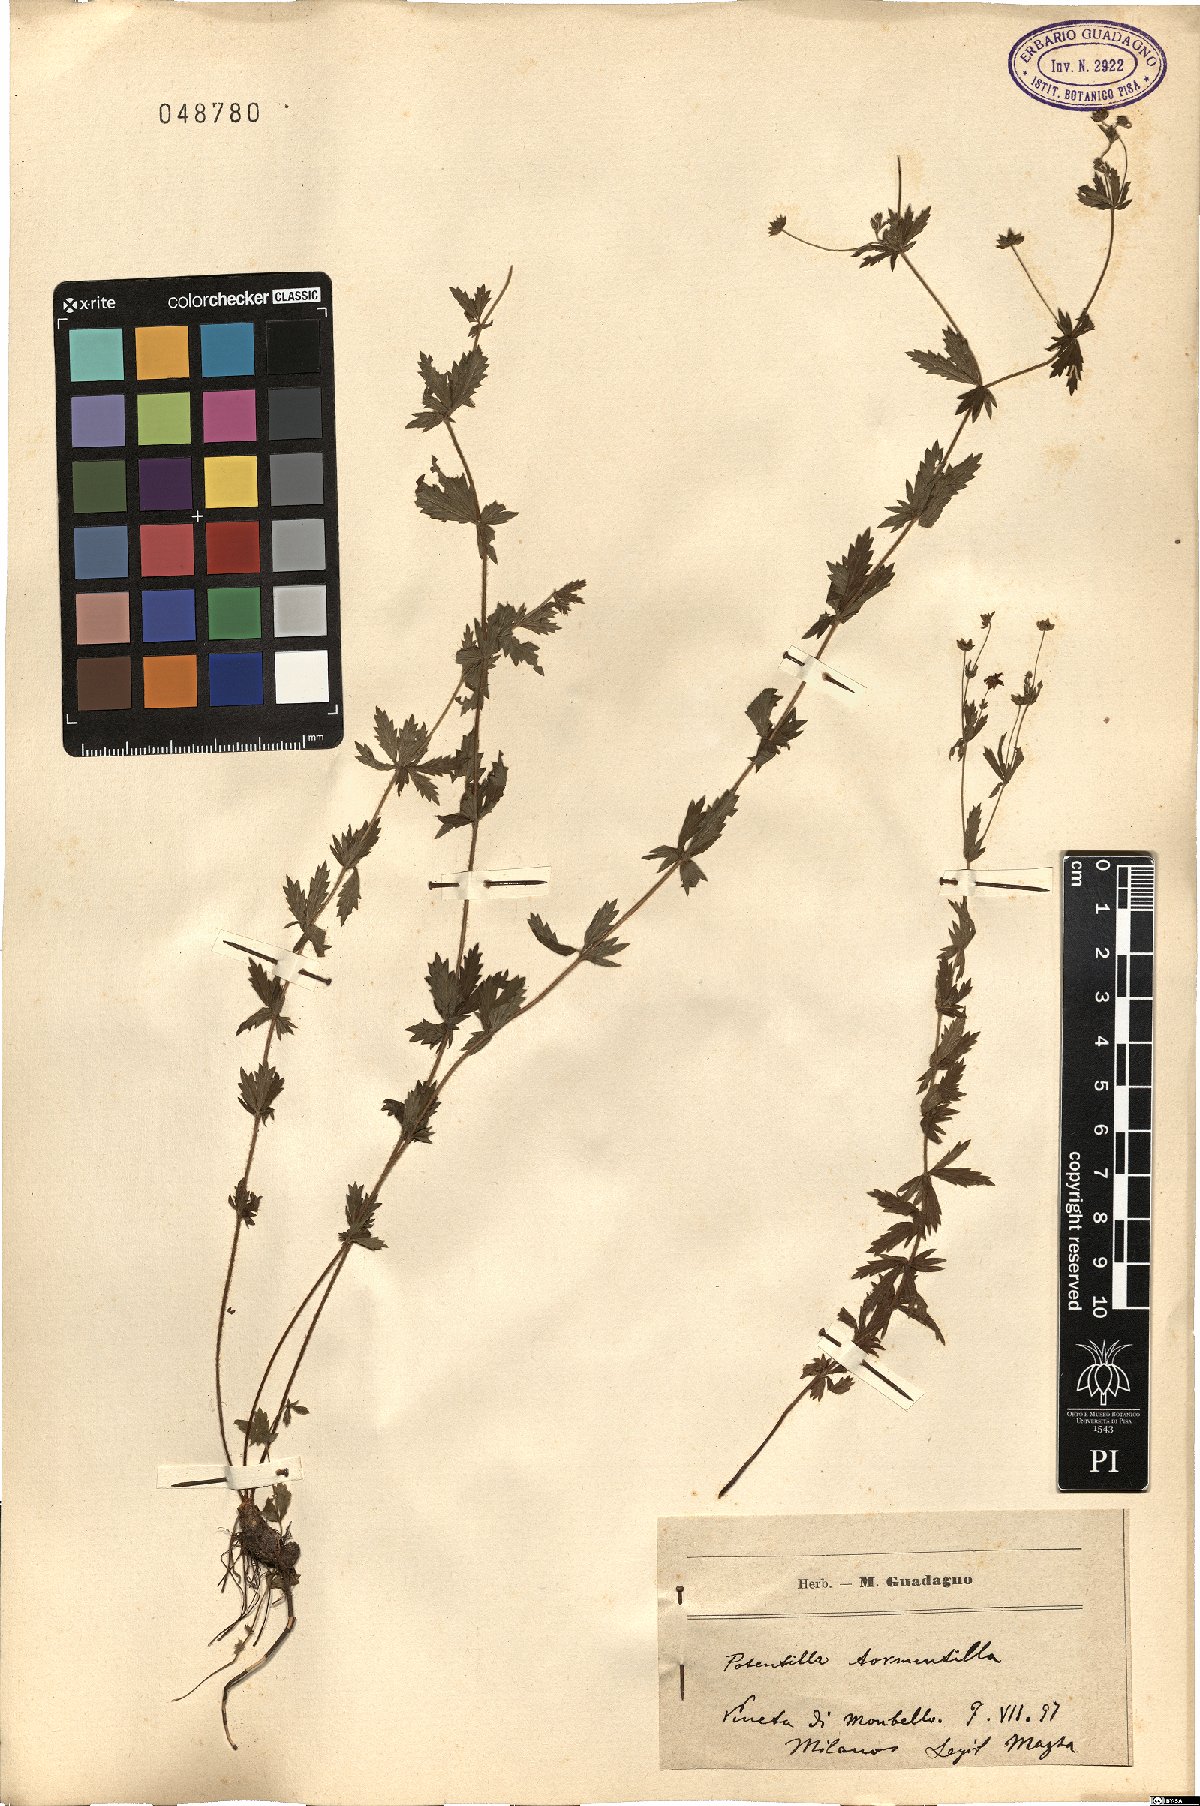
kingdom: Plantae
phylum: Tracheophyta
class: Magnoliopsida
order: Rosales
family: Rosaceae
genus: Potentilla
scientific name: Potentilla erecta
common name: Tormentil
